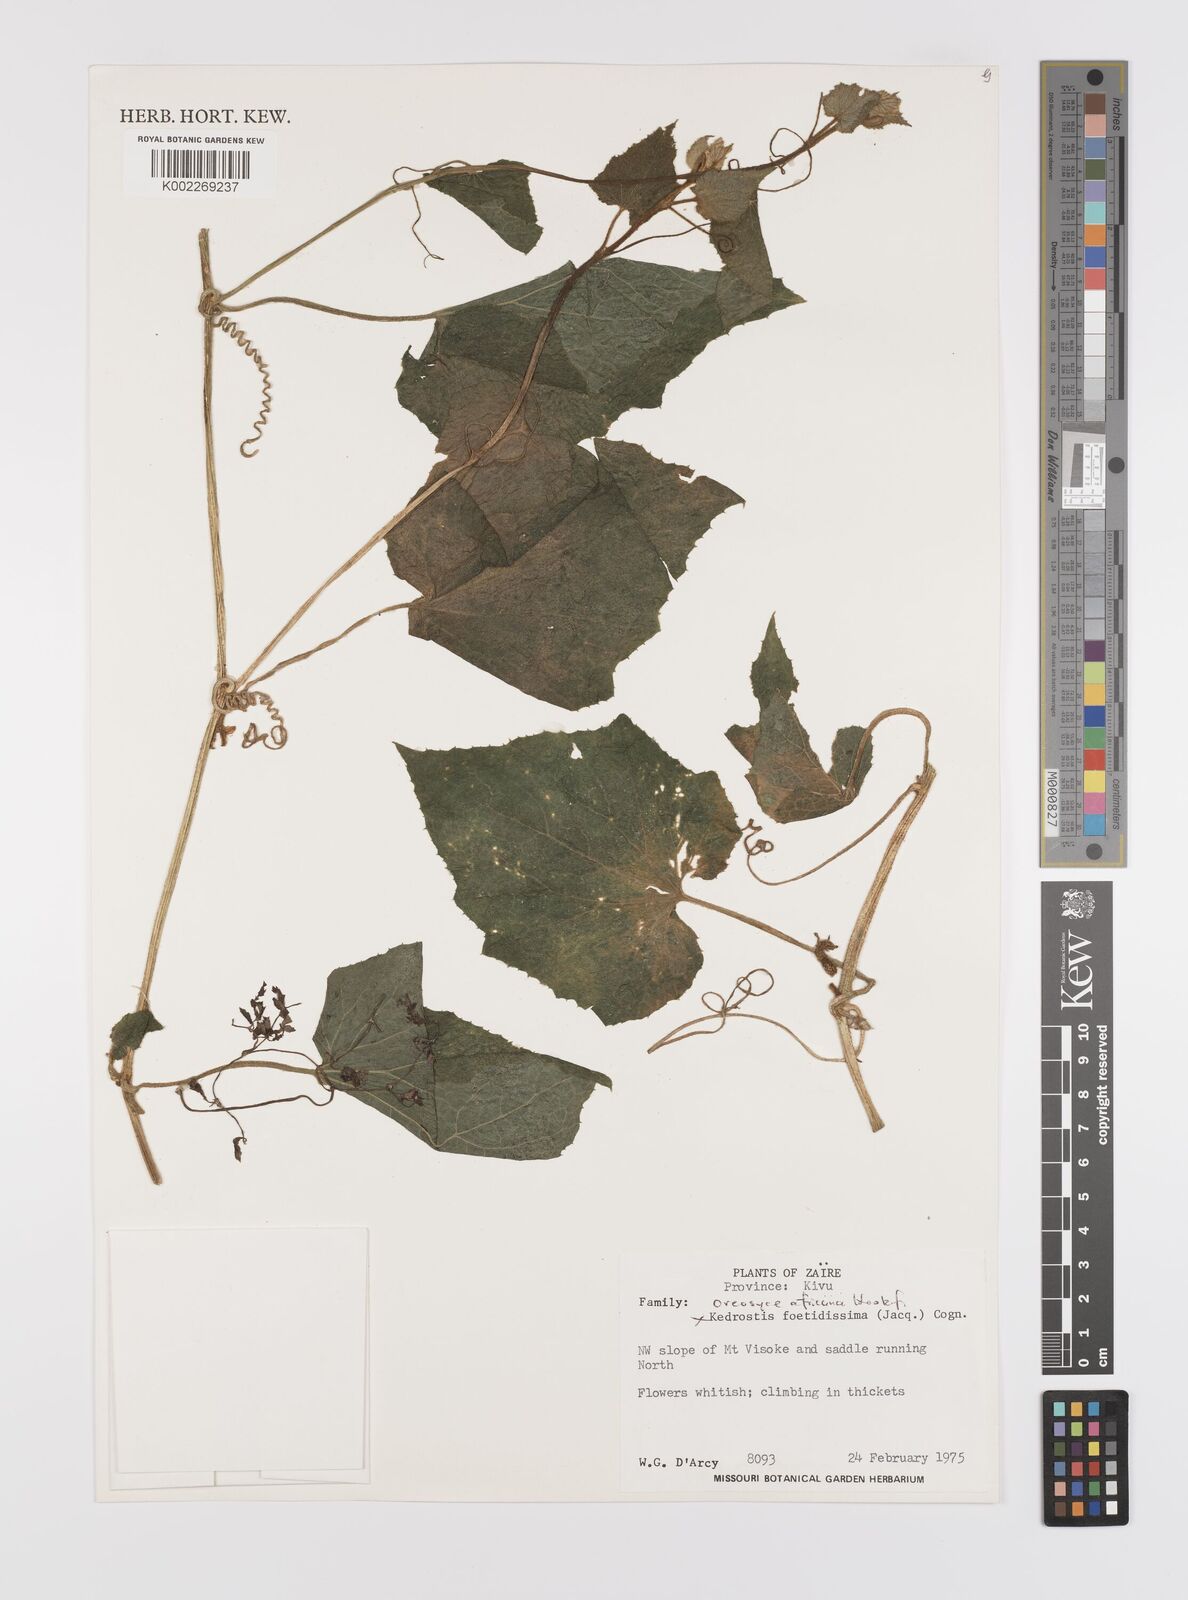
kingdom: Plantae
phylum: Tracheophyta
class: Magnoliopsida
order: Cucurbitales
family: Cucurbitaceae
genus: Cucumis
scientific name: Cucumis oreosyce
